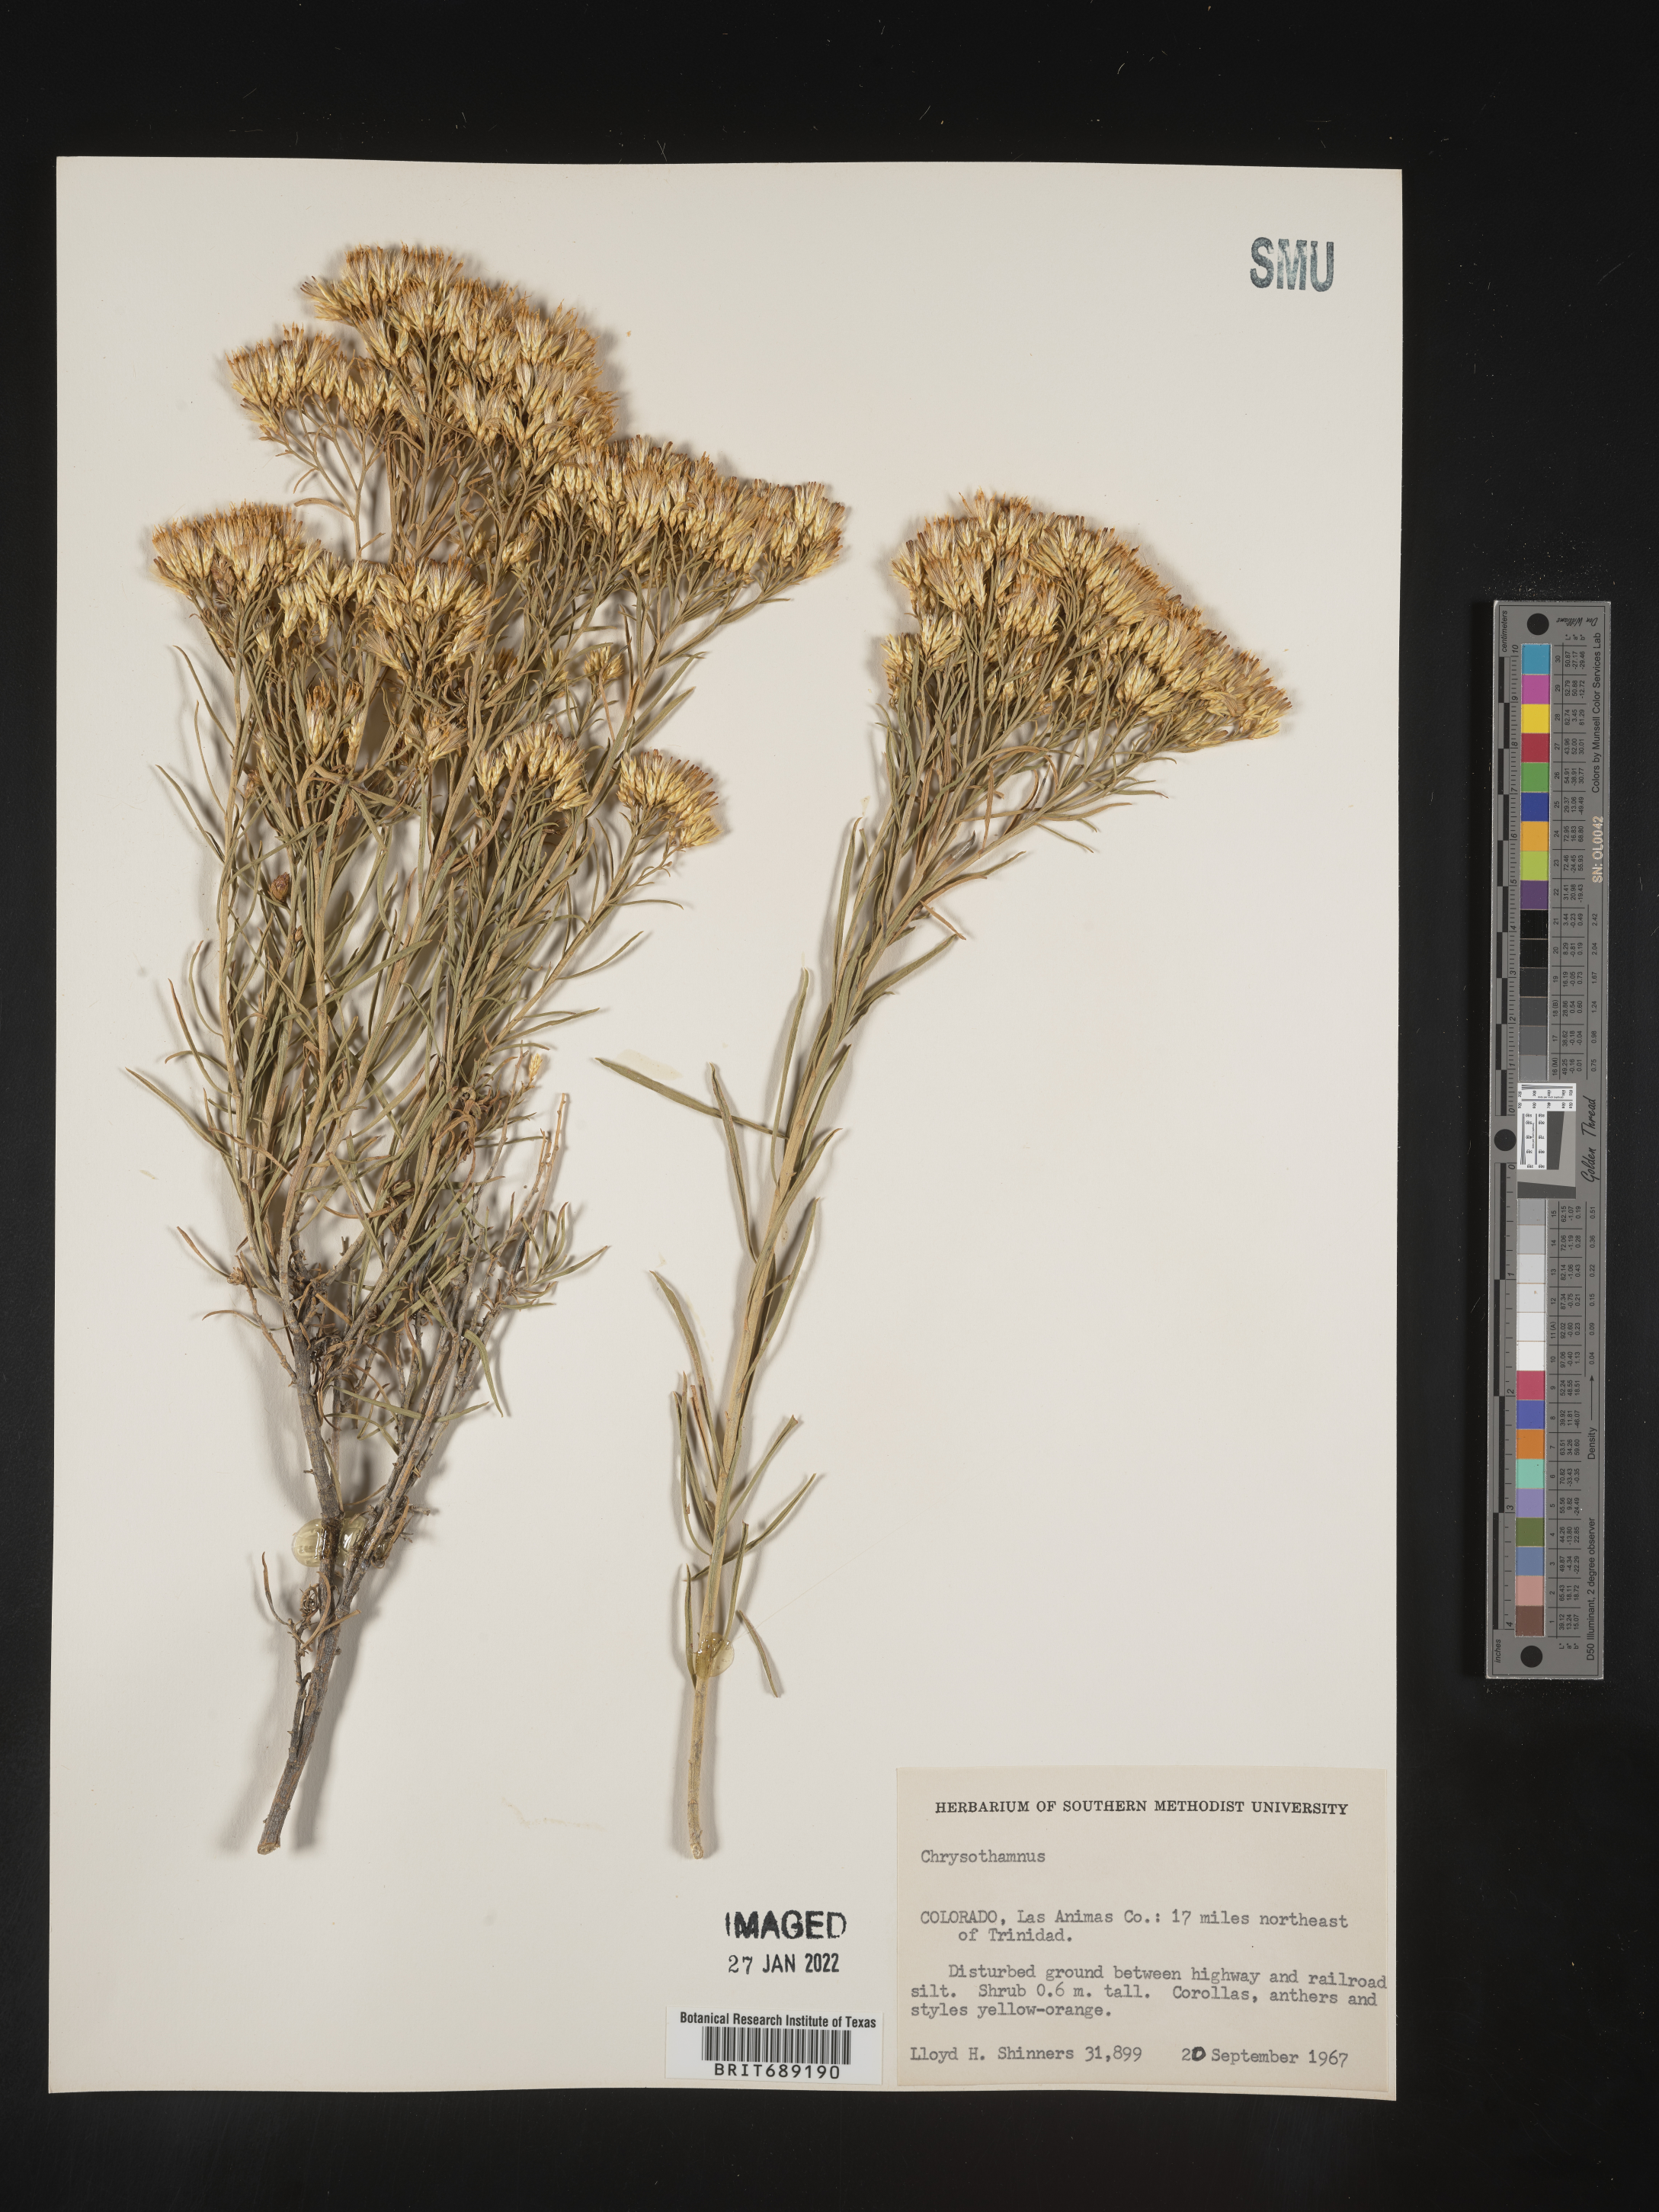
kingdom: Plantae
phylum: Tracheophyta
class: Magnoliopsida
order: Asterales
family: Asteraceae
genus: Chrysothamnus
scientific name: Chrysothamnus
